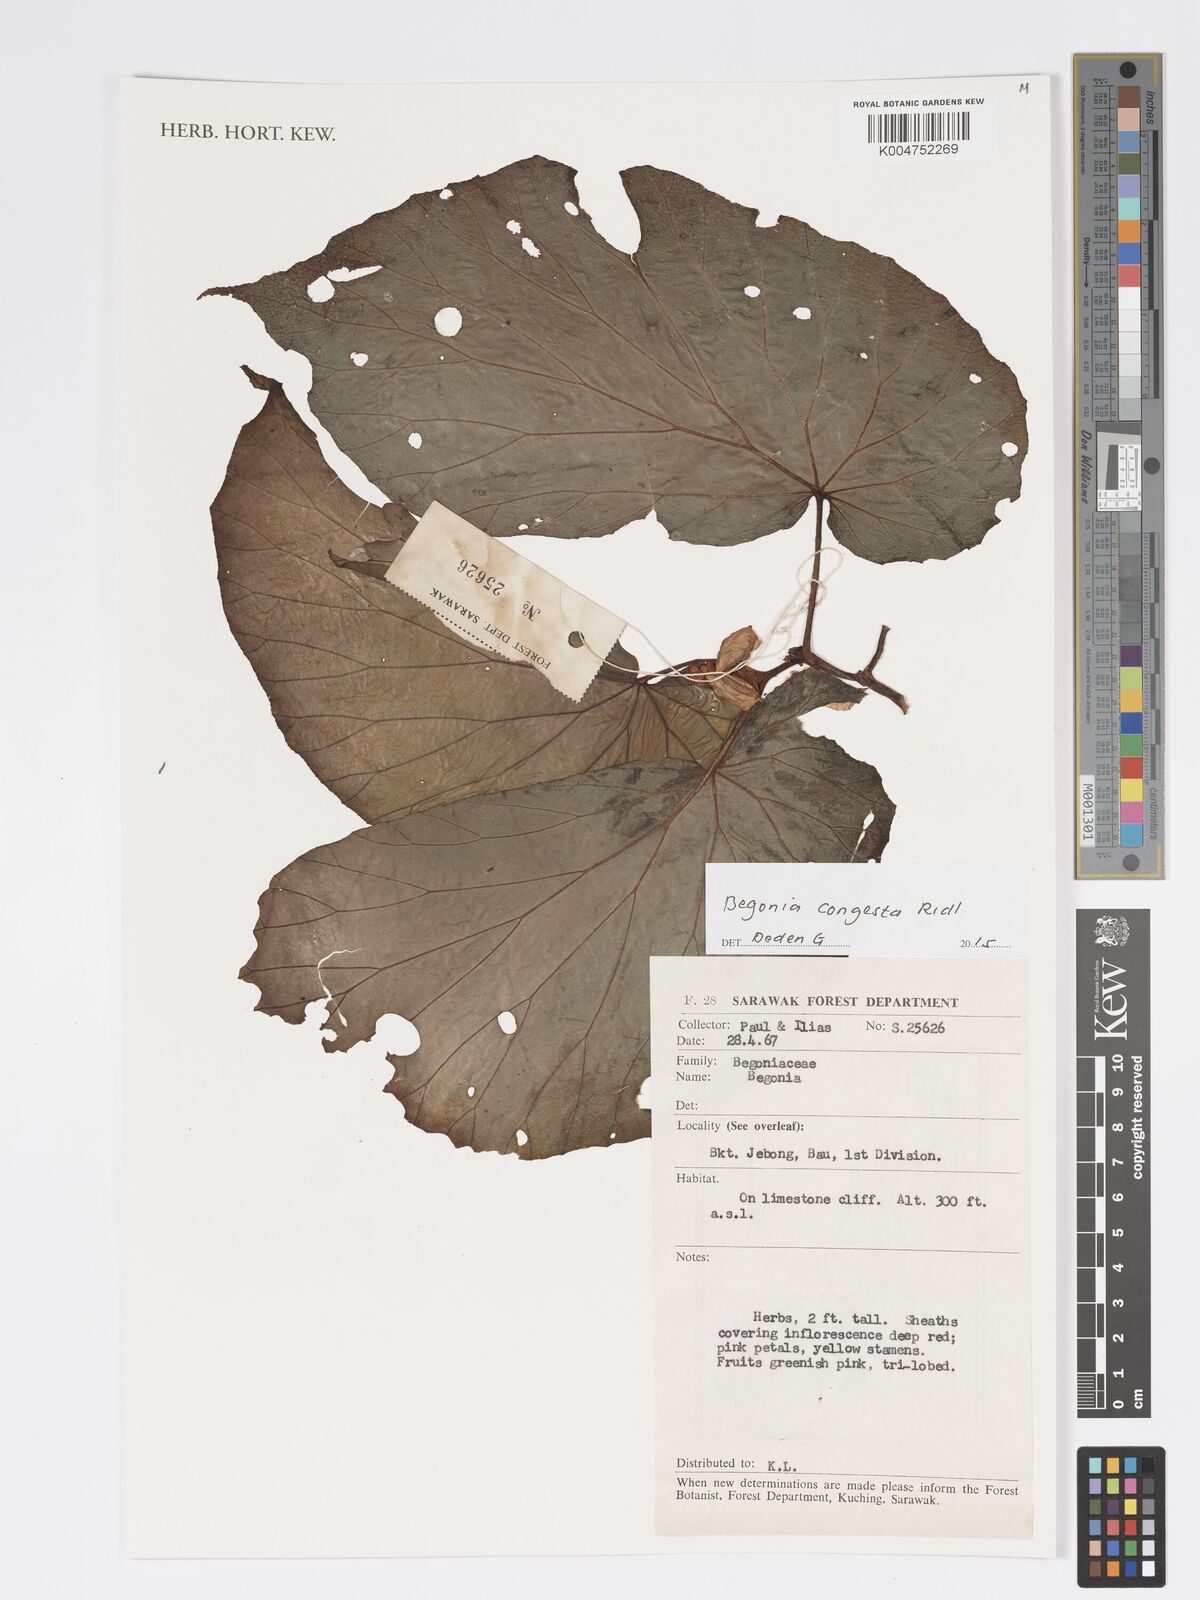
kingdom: Plantae
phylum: Tracheophyta
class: Magnoliopsida
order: Cucurbitales
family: Begoniaceae
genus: Begonia
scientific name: Begonia congesta
